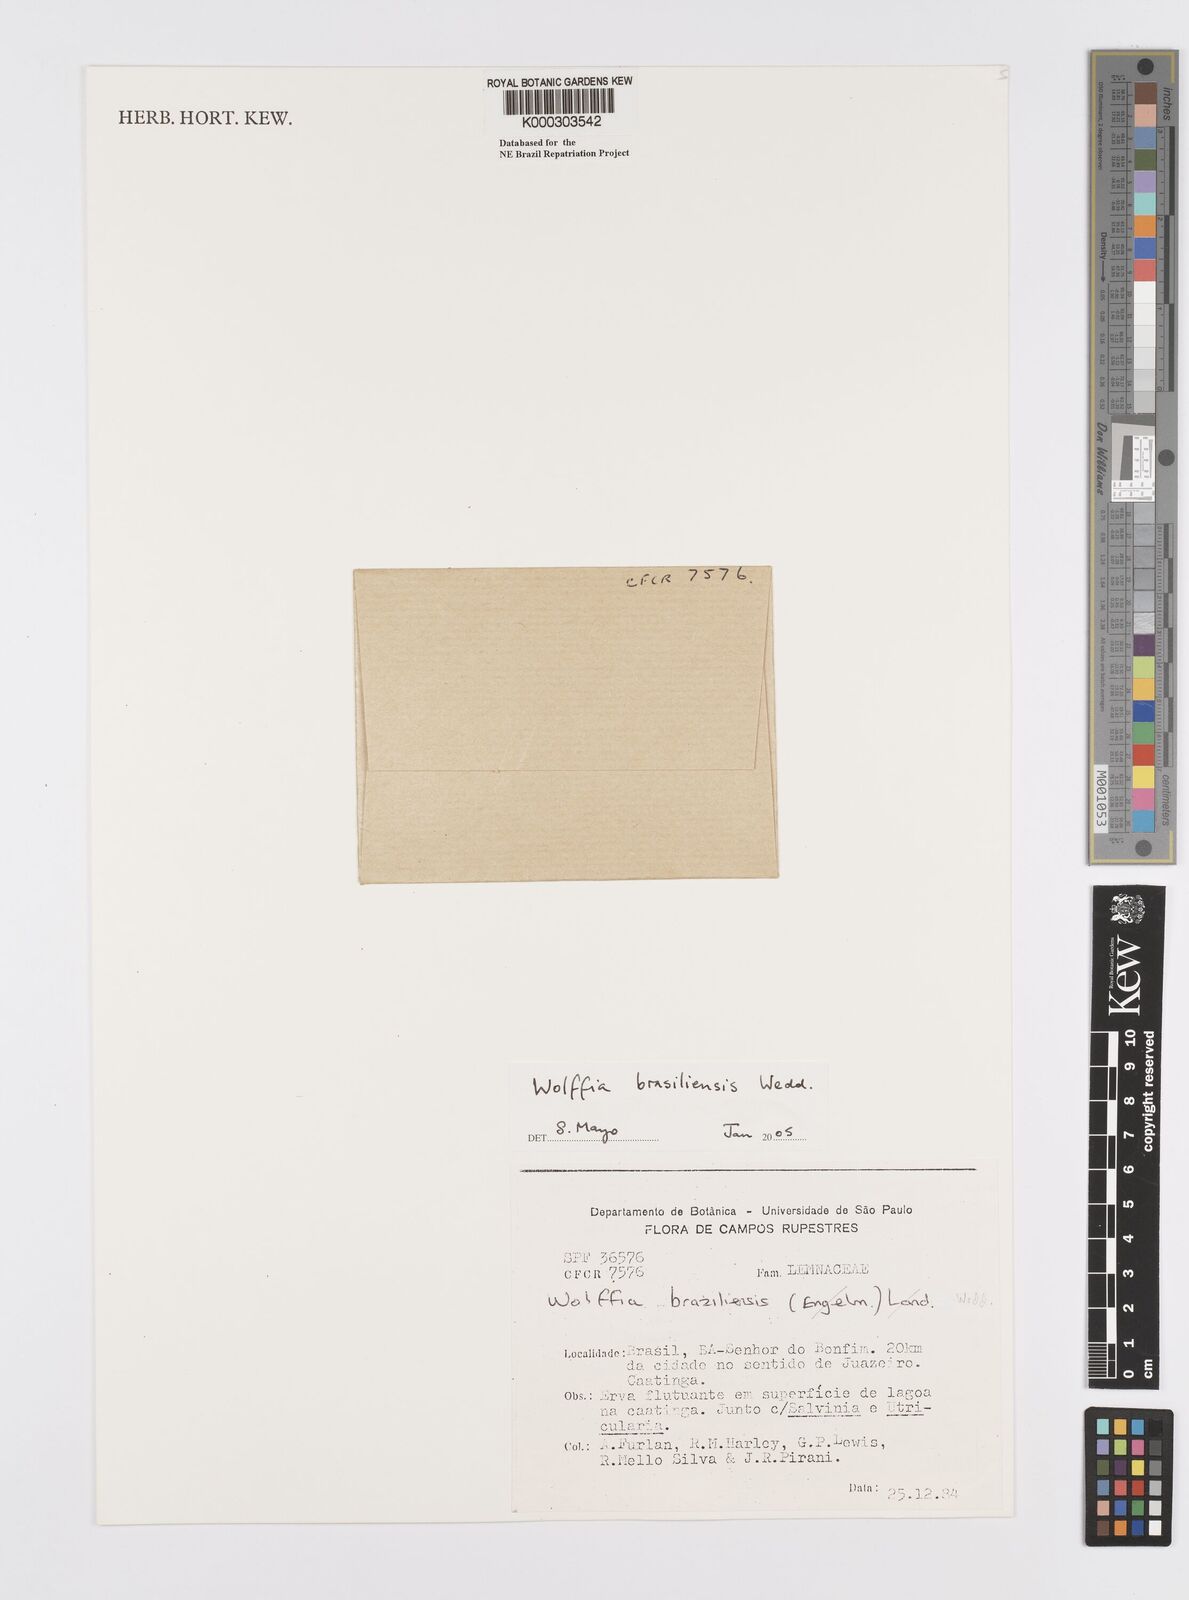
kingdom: Plantae
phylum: Tracheophyta
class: Liliopsida
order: Alismatales
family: Araceae
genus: Wolffia
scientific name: Wolffia brasiliensis
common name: Brazilian watermeal
